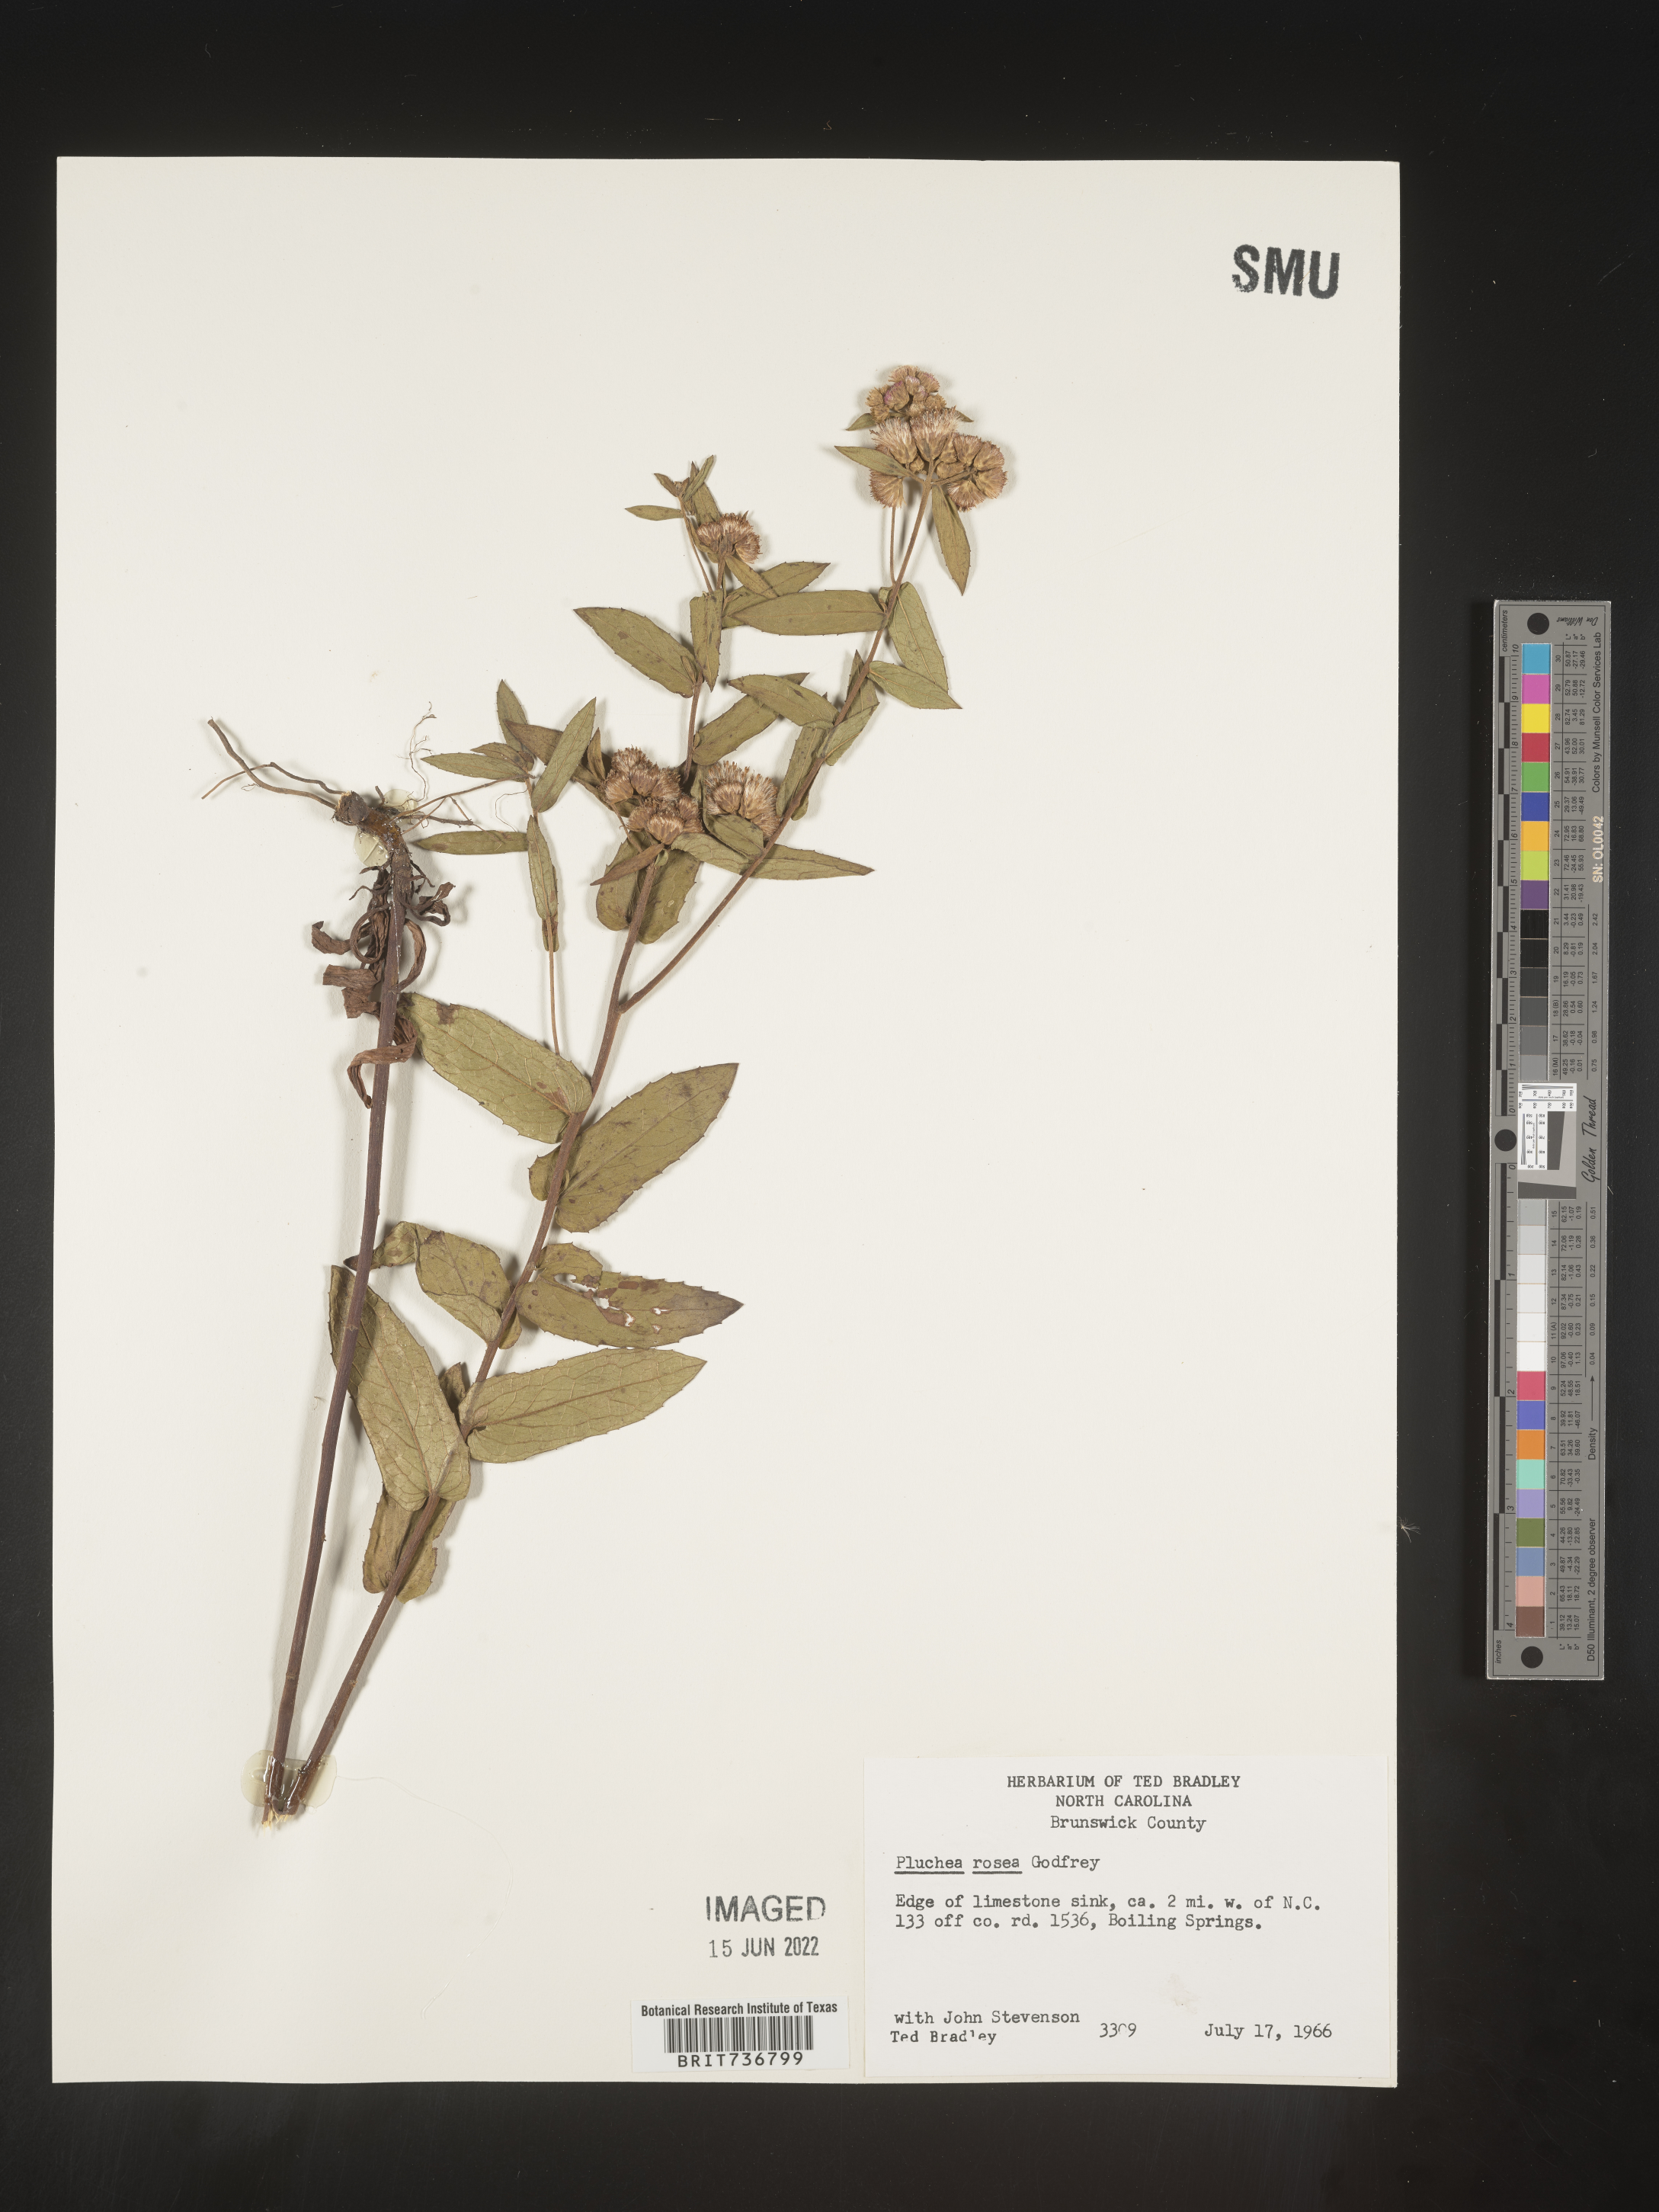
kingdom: Plantae
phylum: Tracheophyta
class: Magnoliopsida
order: Asterales
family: Asteraceae
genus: Pluchea
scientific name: Pluchea baccharis
